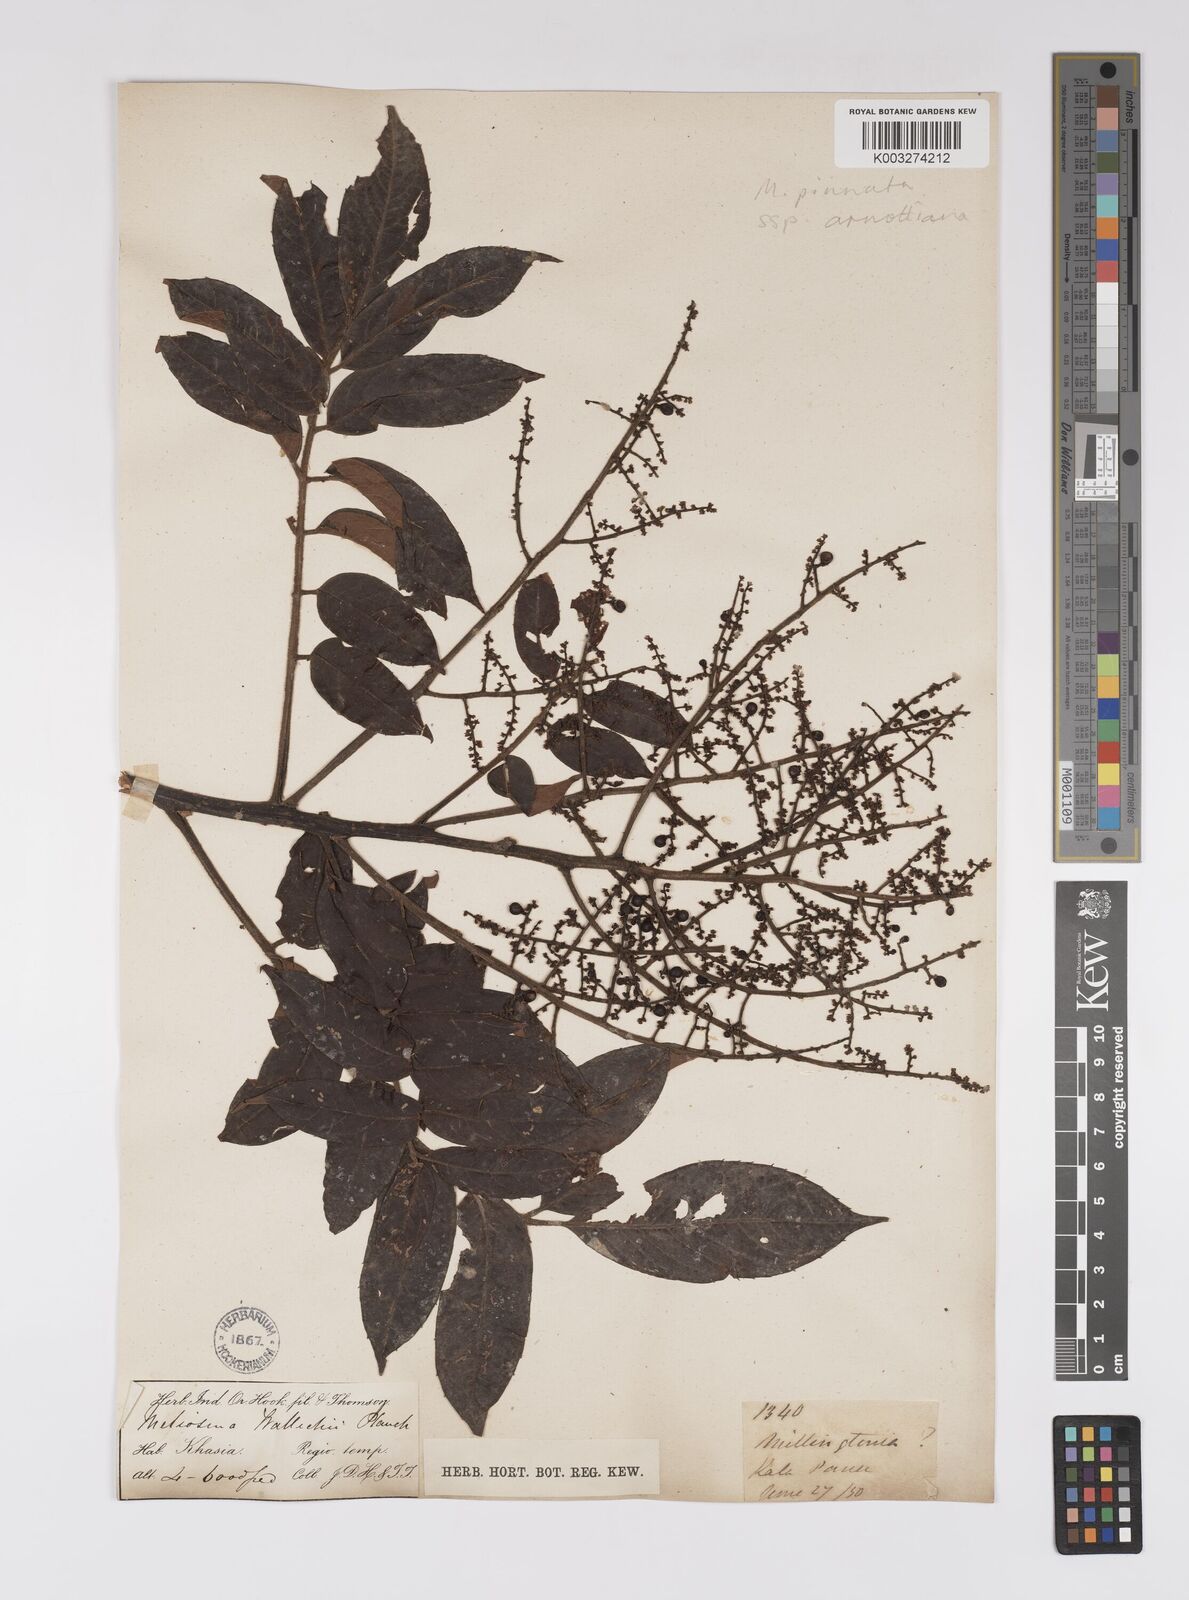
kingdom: Plantae
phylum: Tracheophyta
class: Magnoliopsida
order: Proteales
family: Sabiaceae
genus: Meliosma
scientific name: Meliosma rhoifolia
